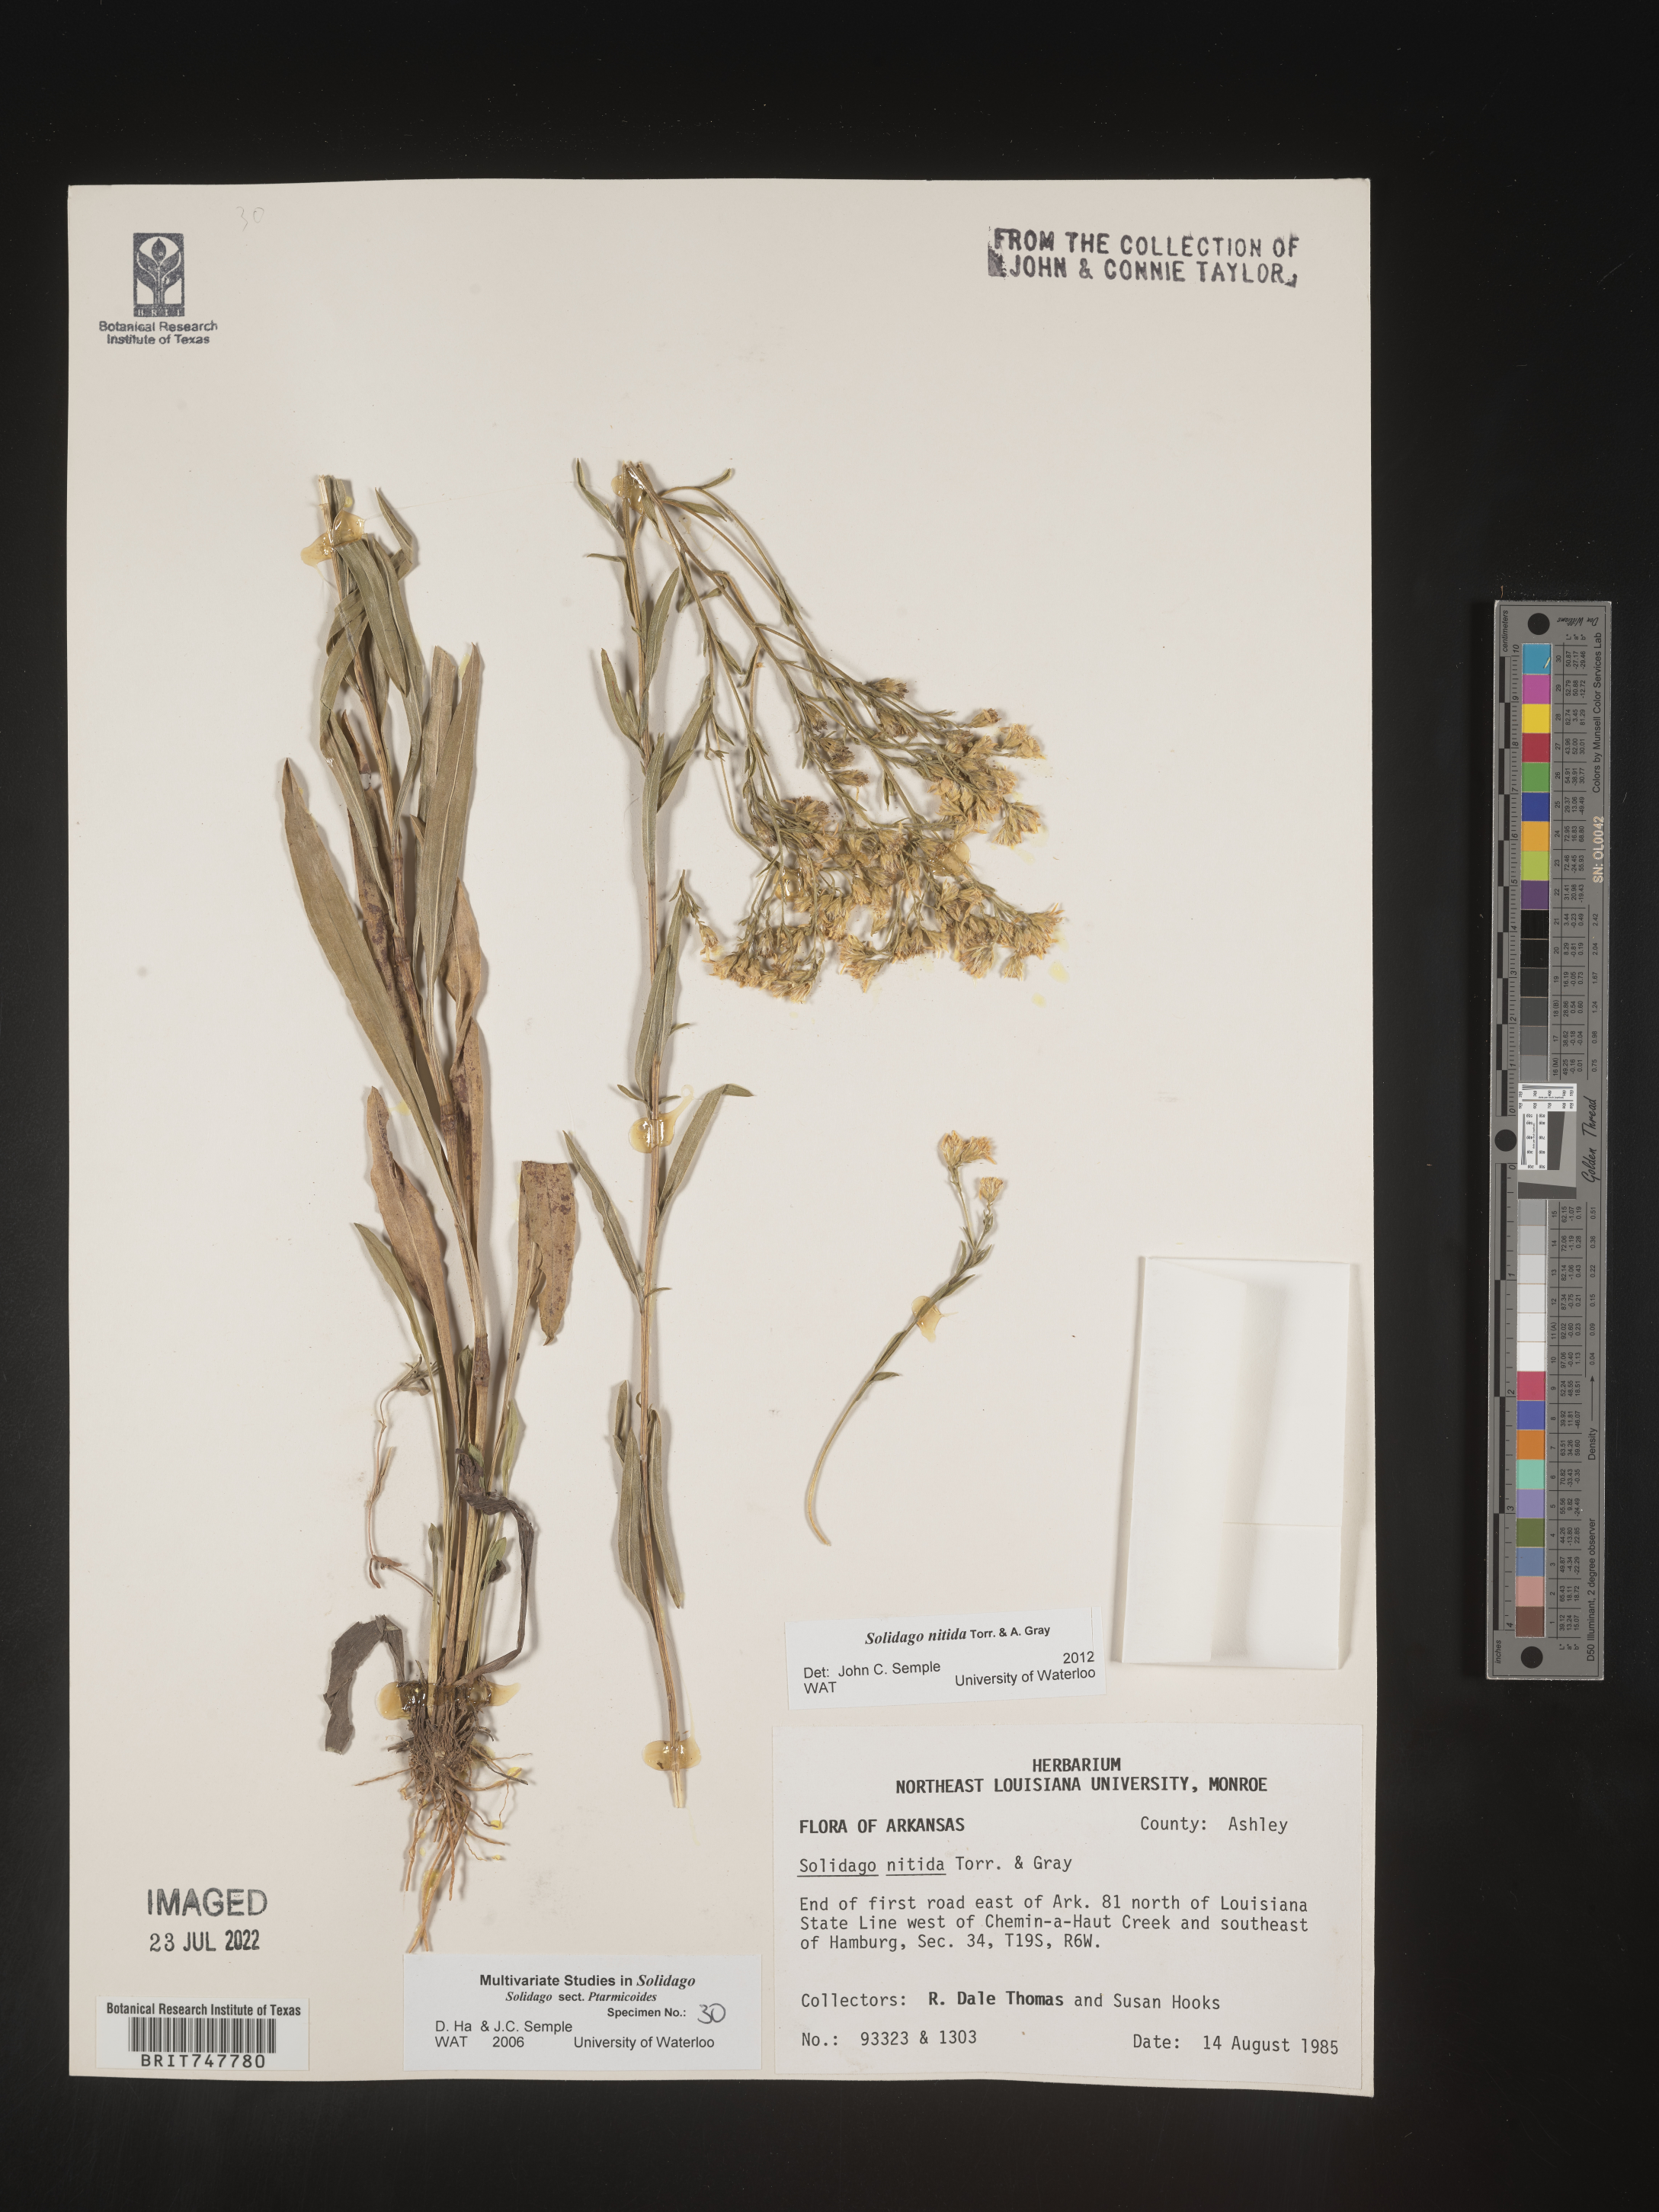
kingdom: Plantae
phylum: Tracheophyta
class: Magnoliopsida
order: Asterales
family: Asteraceae
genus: Solidago
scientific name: Solidago nitida
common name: Shiny goldenrod
